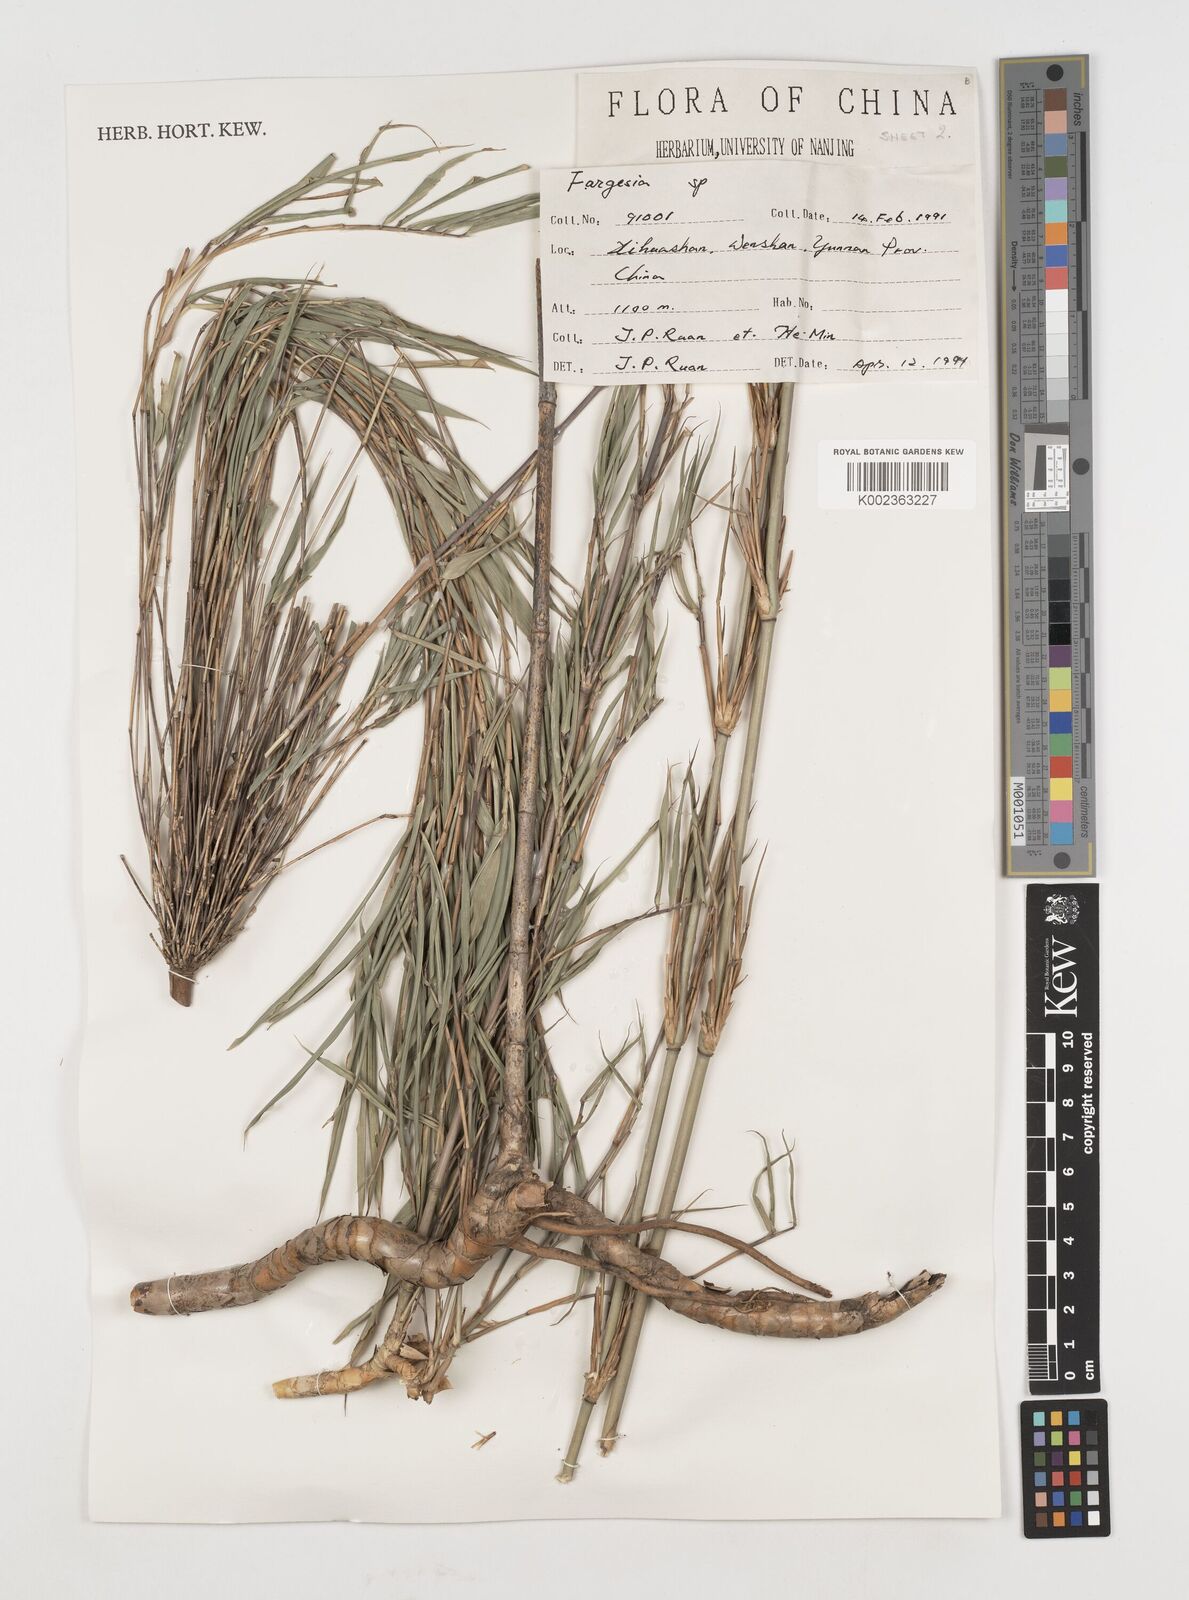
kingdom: Plantae
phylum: Tracheophyta
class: Liliopsida
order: Poales
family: Poaceae
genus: Fargesia
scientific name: Fargesia
